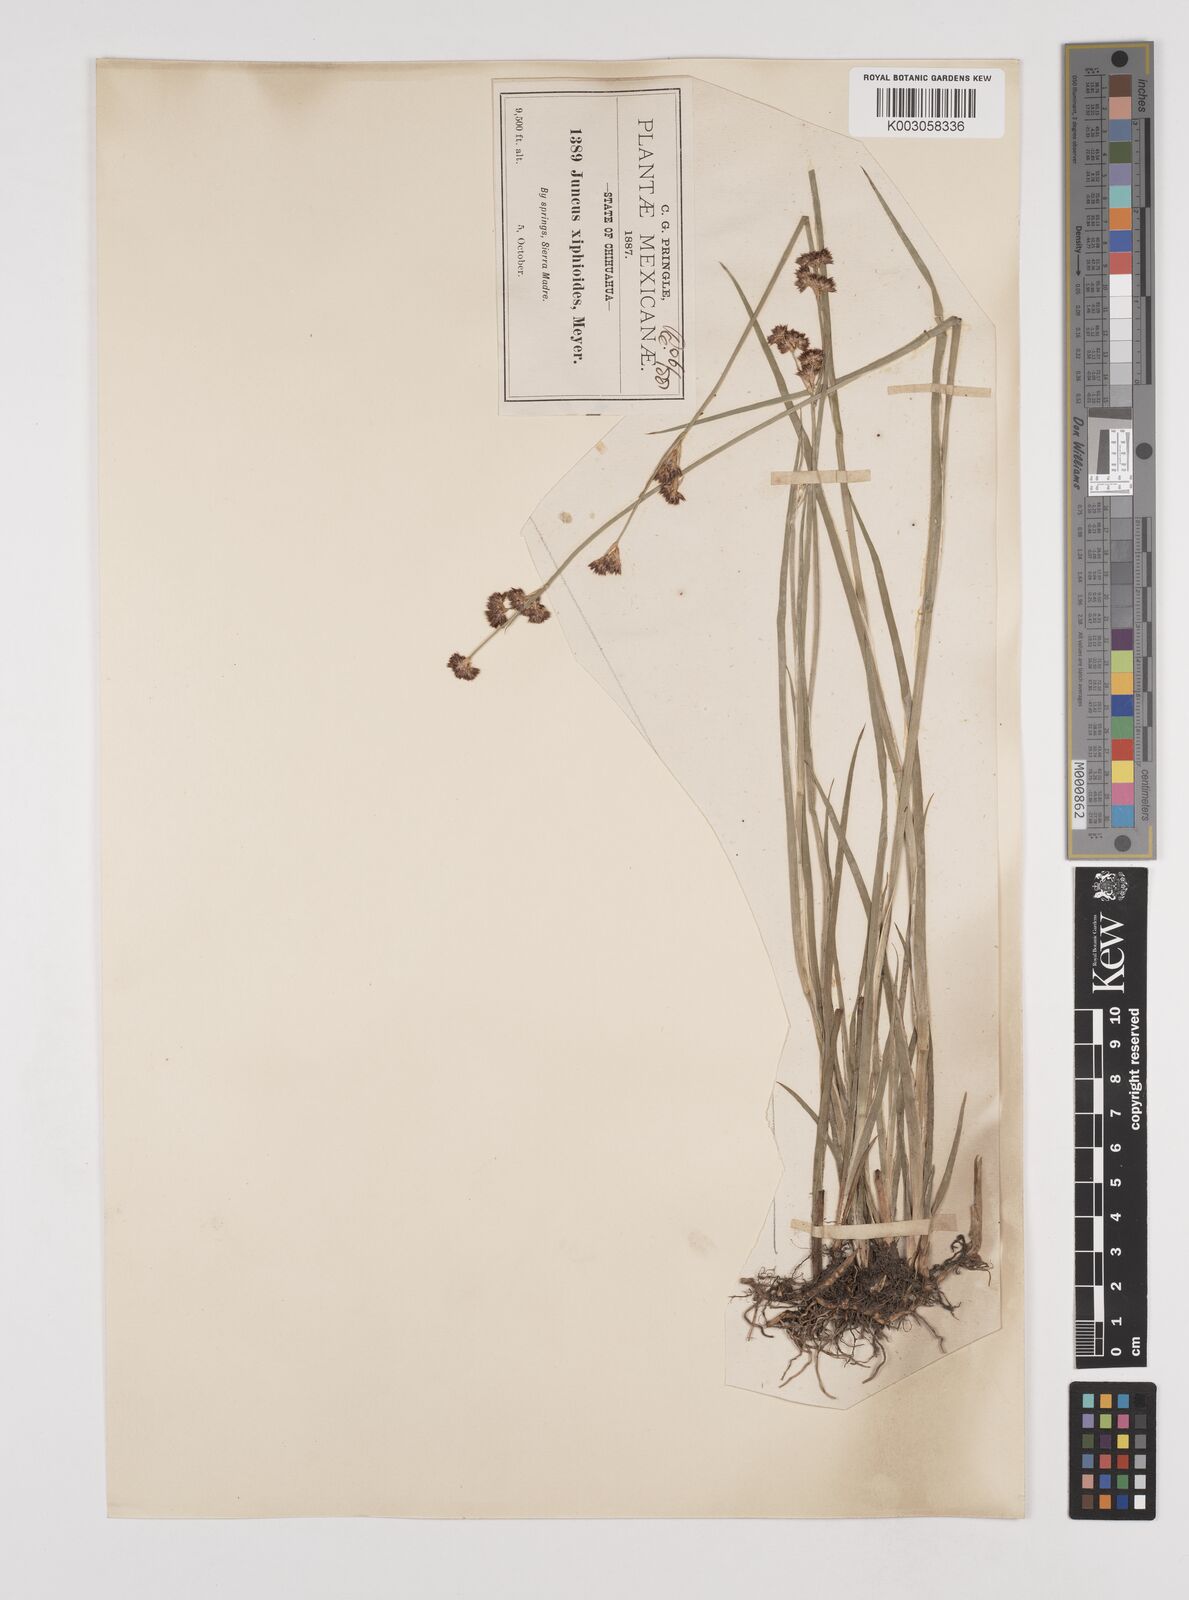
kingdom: Plantae
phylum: Tracheophyta
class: Liliopsida
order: Poales
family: Juncaceae
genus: Juncus
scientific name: Juncus xiphioides
